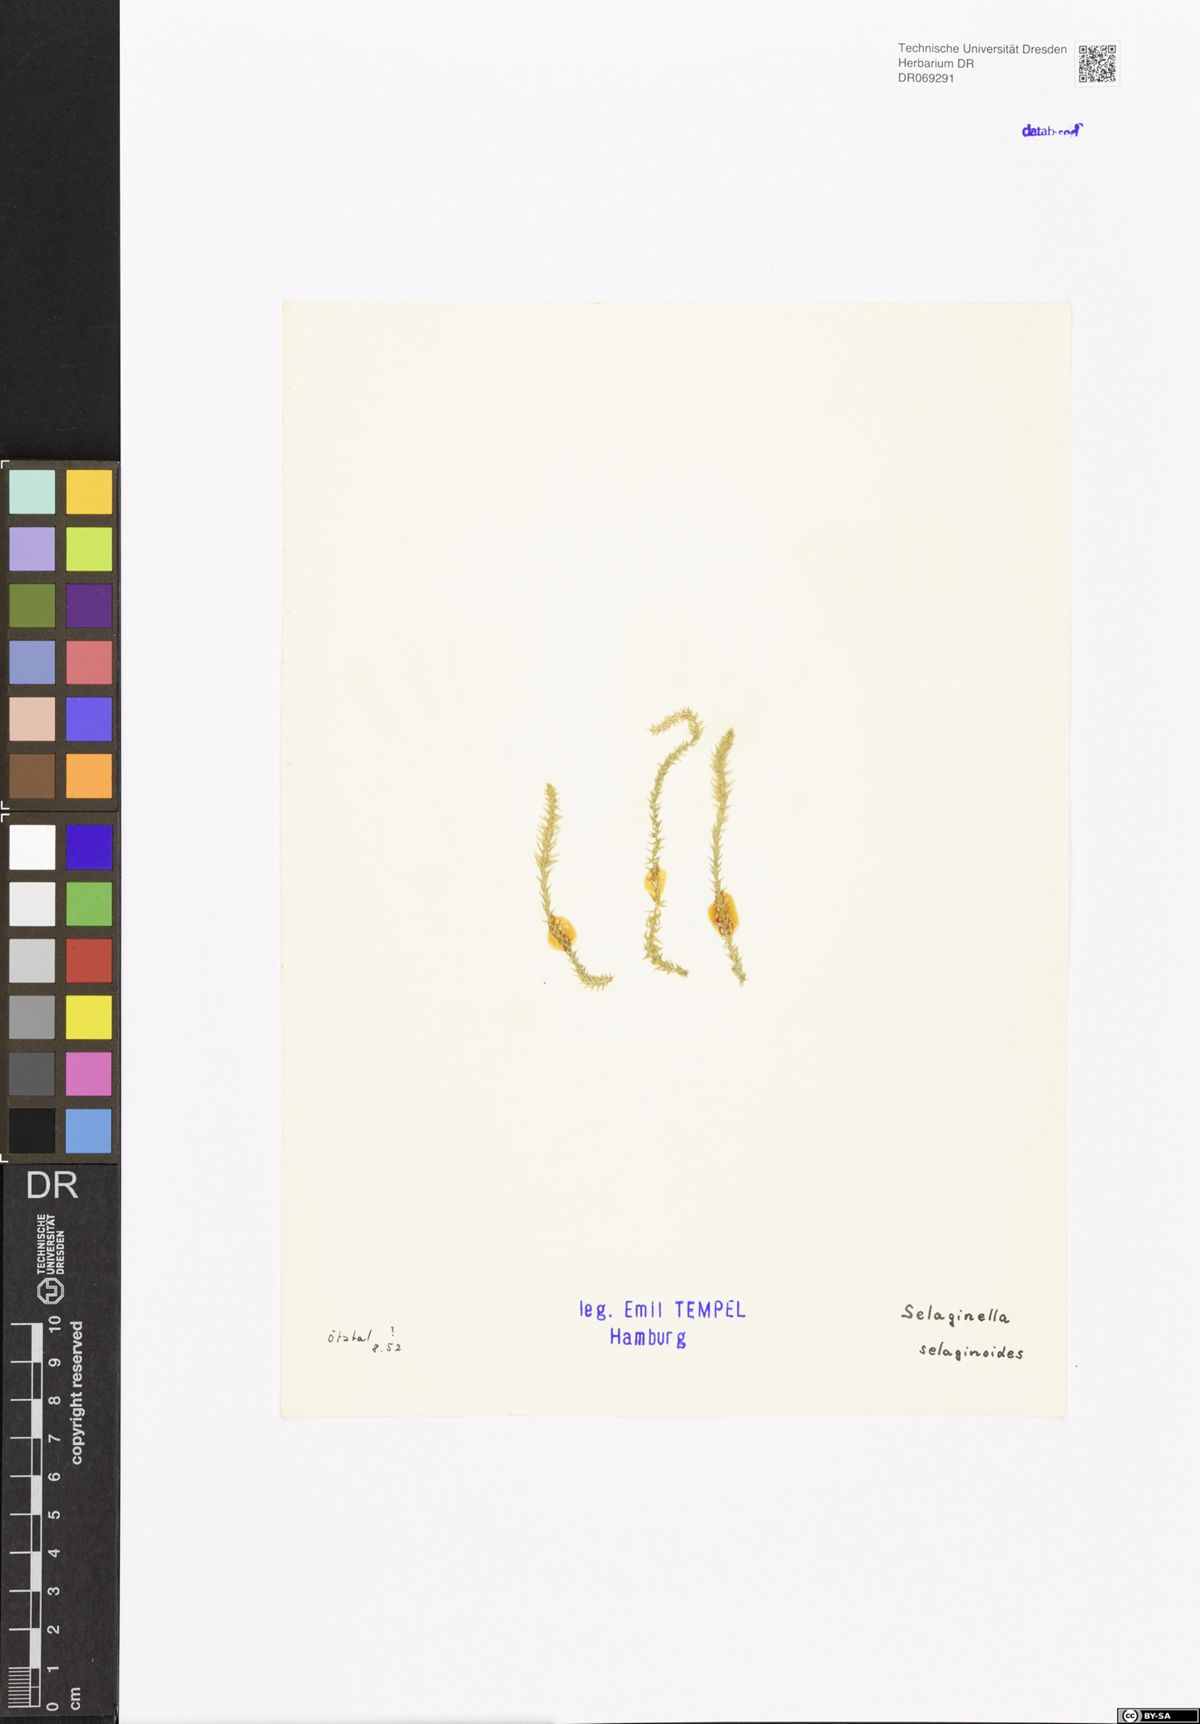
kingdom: Plantae
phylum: Tracheophyta
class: Lycopodiopsida
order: Selaginellales
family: Selaginellaceae
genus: Selaginella
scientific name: Selaginella selaginoides
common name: Prickly mountain-moss
